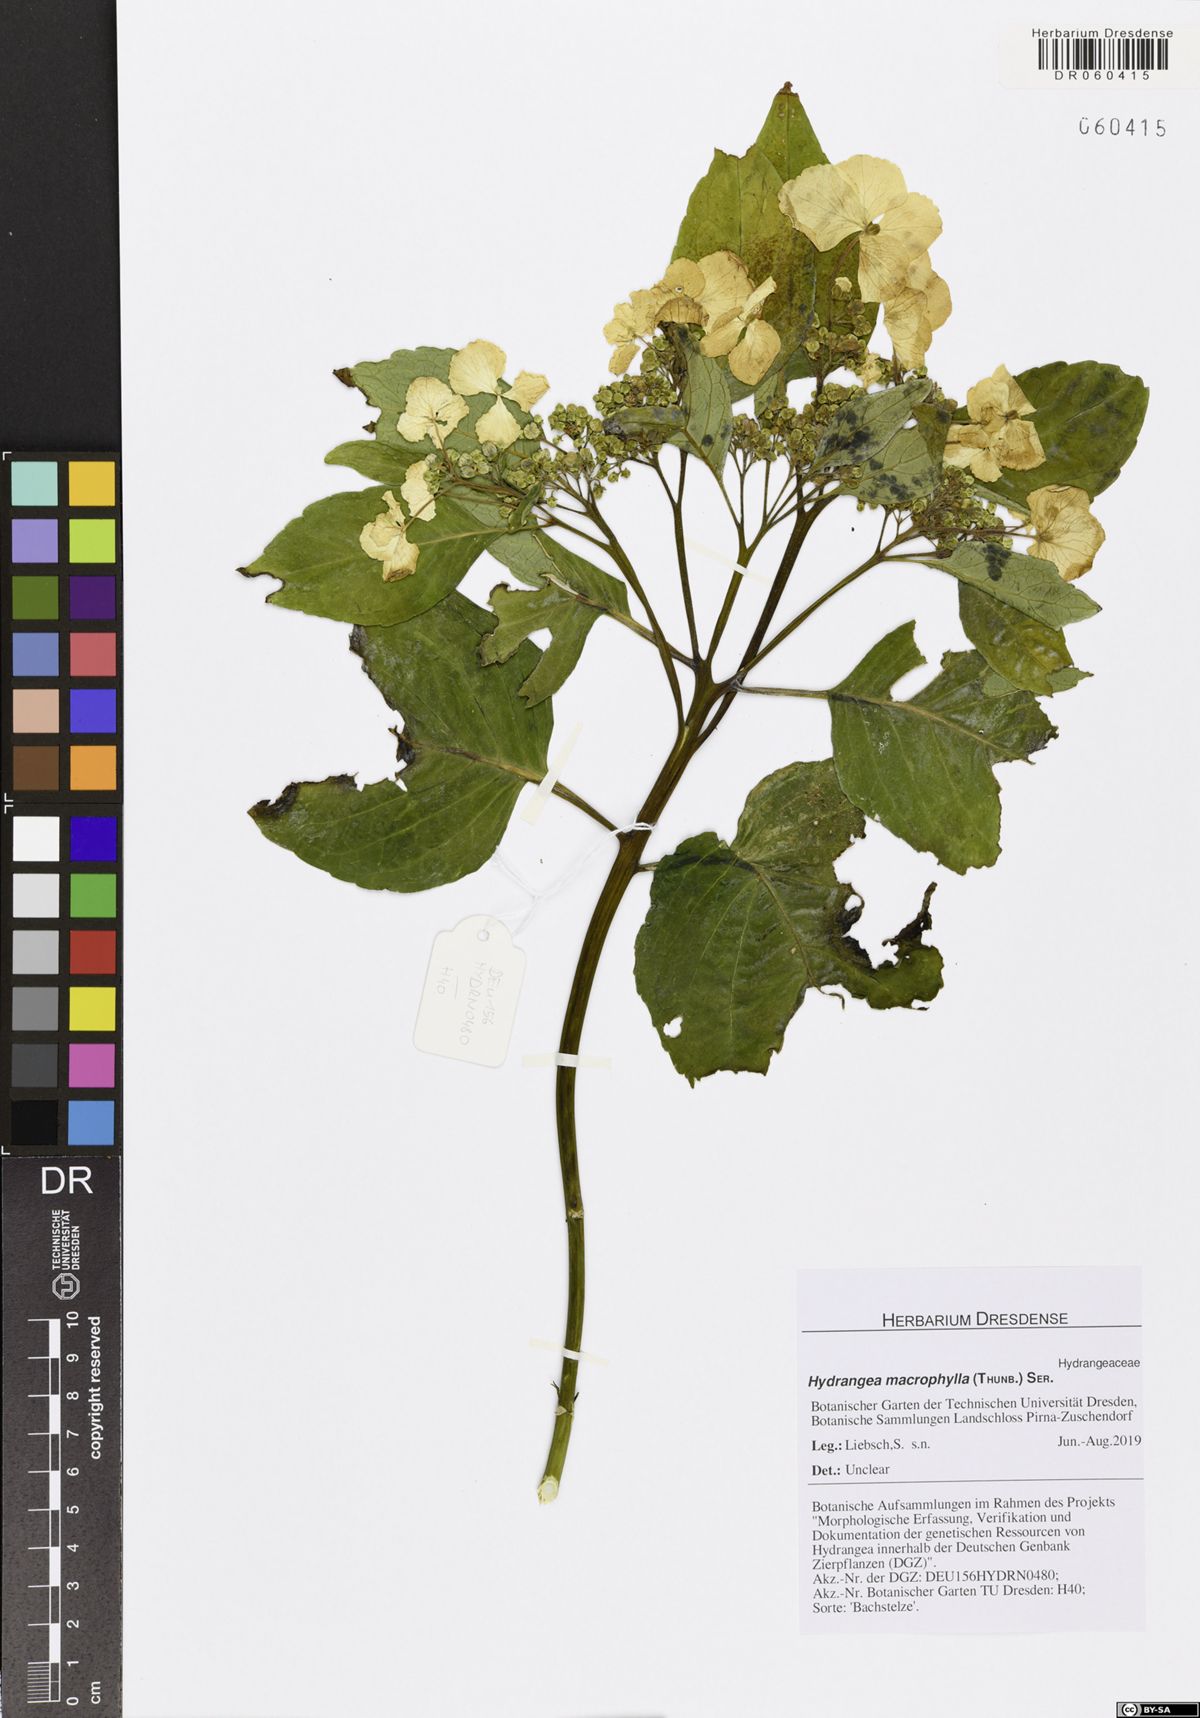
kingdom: Plantae
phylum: Tracheophyta
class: Magnoliopsida
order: Cornales
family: Hydrangeaceae
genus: Hydrangea
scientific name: Hydrangea macrophylla
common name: Hydrangea
